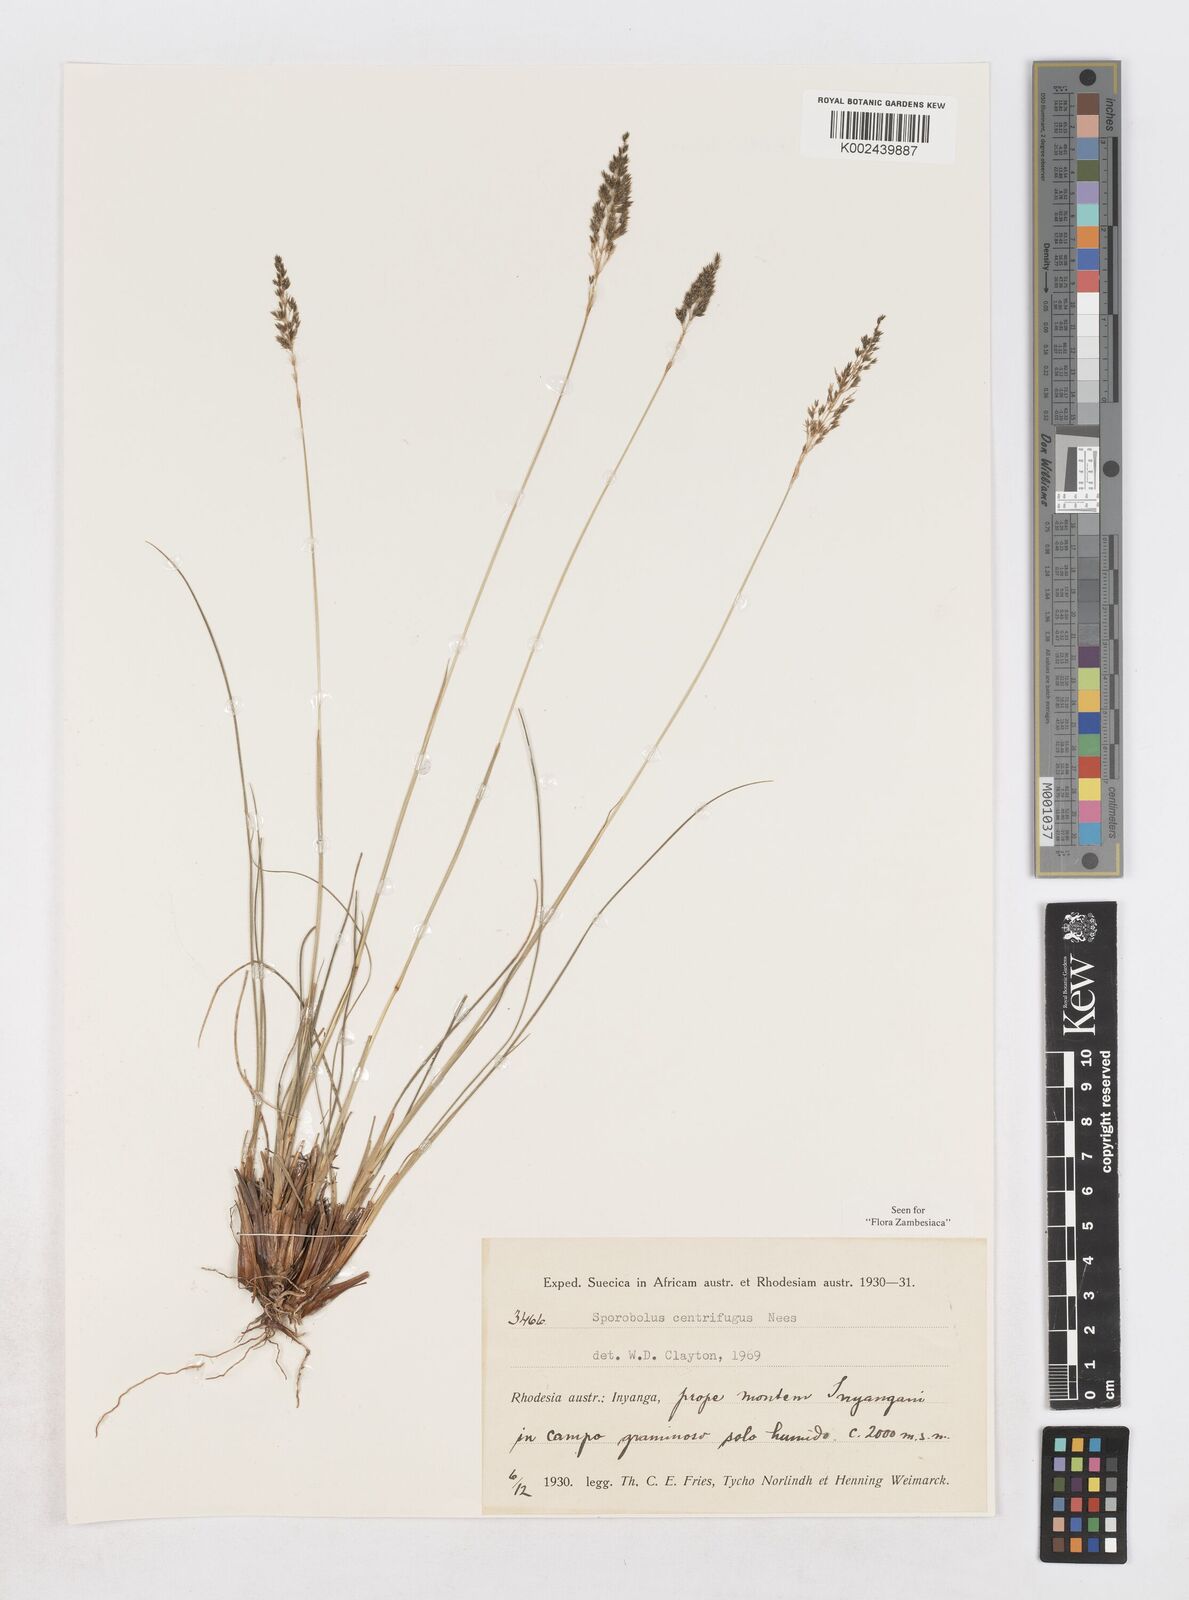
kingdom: Plantae
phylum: Tracheophyta
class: Liliopsida
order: Poales
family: Poaceae
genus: Sporobolus
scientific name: Sporobolus centrifugus
